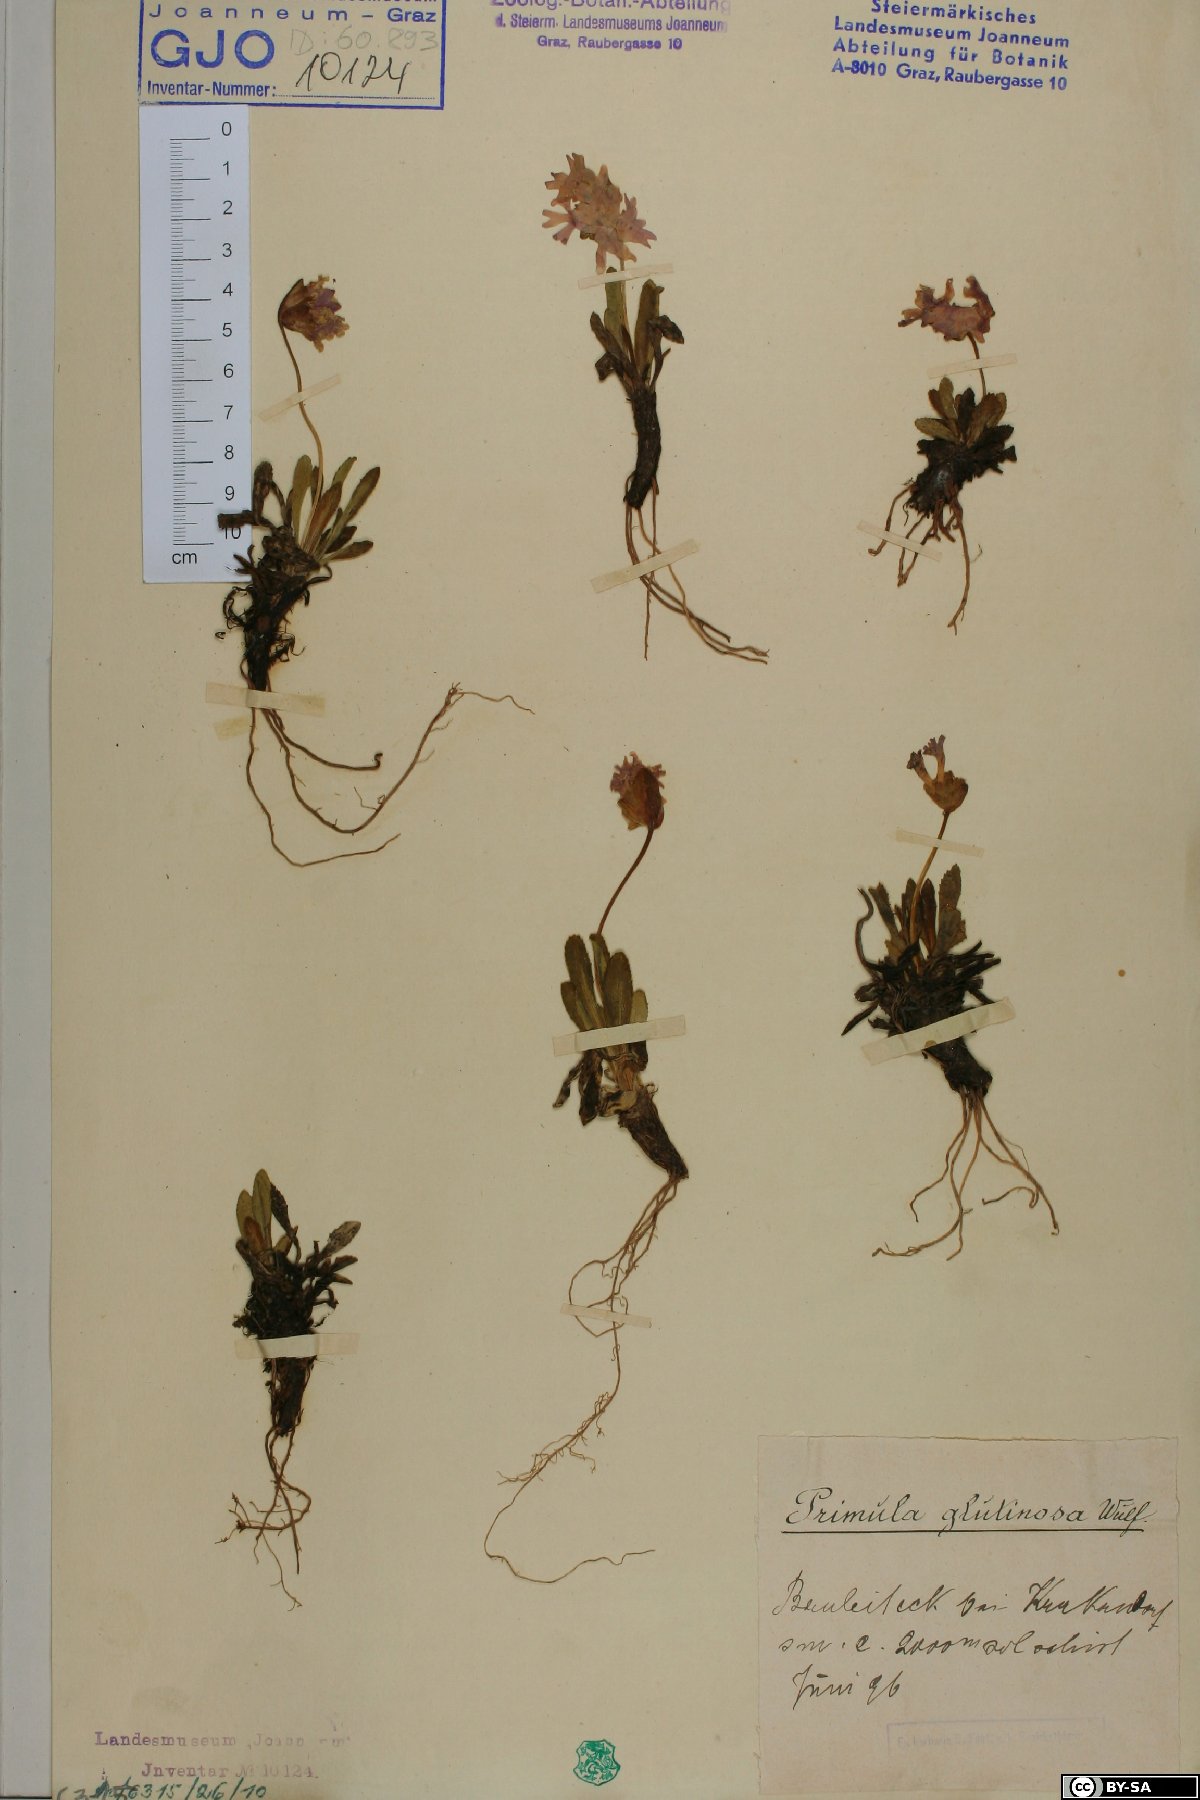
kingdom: Plantae
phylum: Tracheophyta
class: Magnoliopsida
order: Ericales
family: Primulaceae
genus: Primula
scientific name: Primula glutinosa
